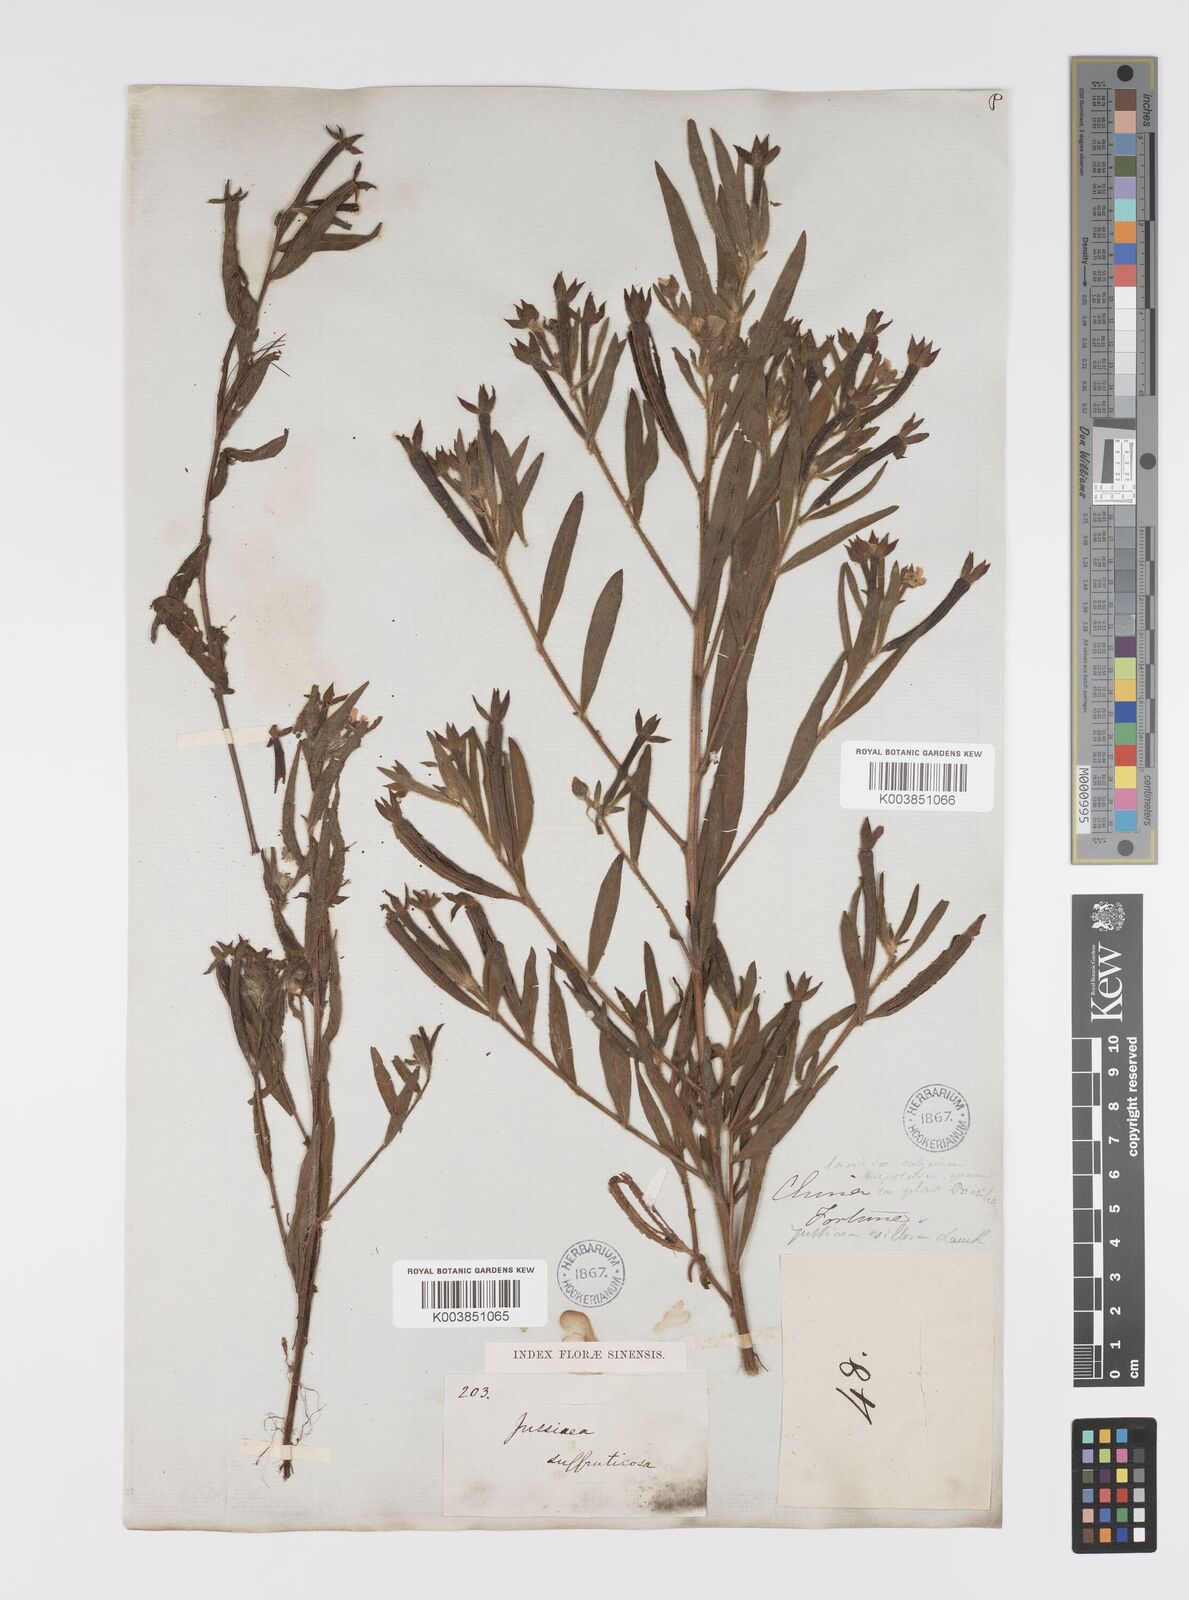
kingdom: Plantae
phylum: Tracheophyta
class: Magnoliopsida
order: Myrtales
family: Onagraceae
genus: Ludwigia
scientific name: Ludwigia octovalvis
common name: Water-primrose
